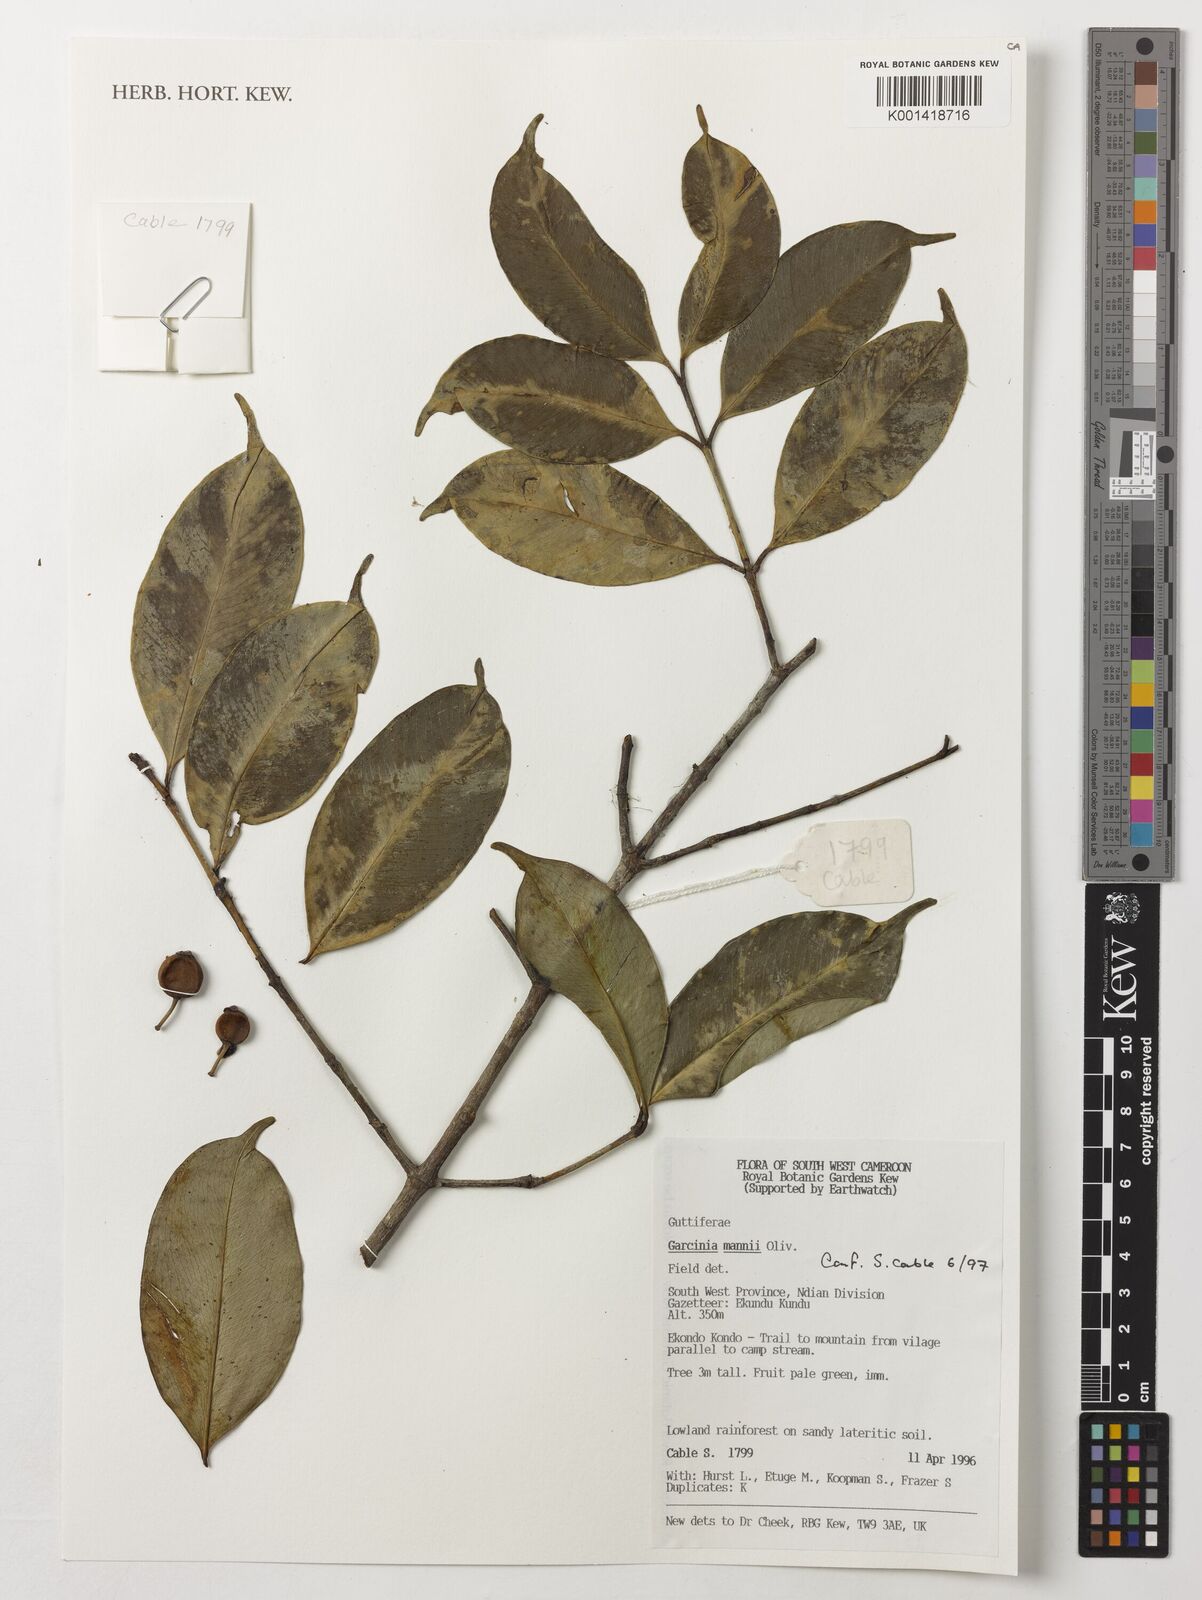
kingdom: Plantae
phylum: Tracheophyta
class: Magnoliopsida
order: Malpighiales
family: Clusiaceae
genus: Garcinia
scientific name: Garcinia mannii
